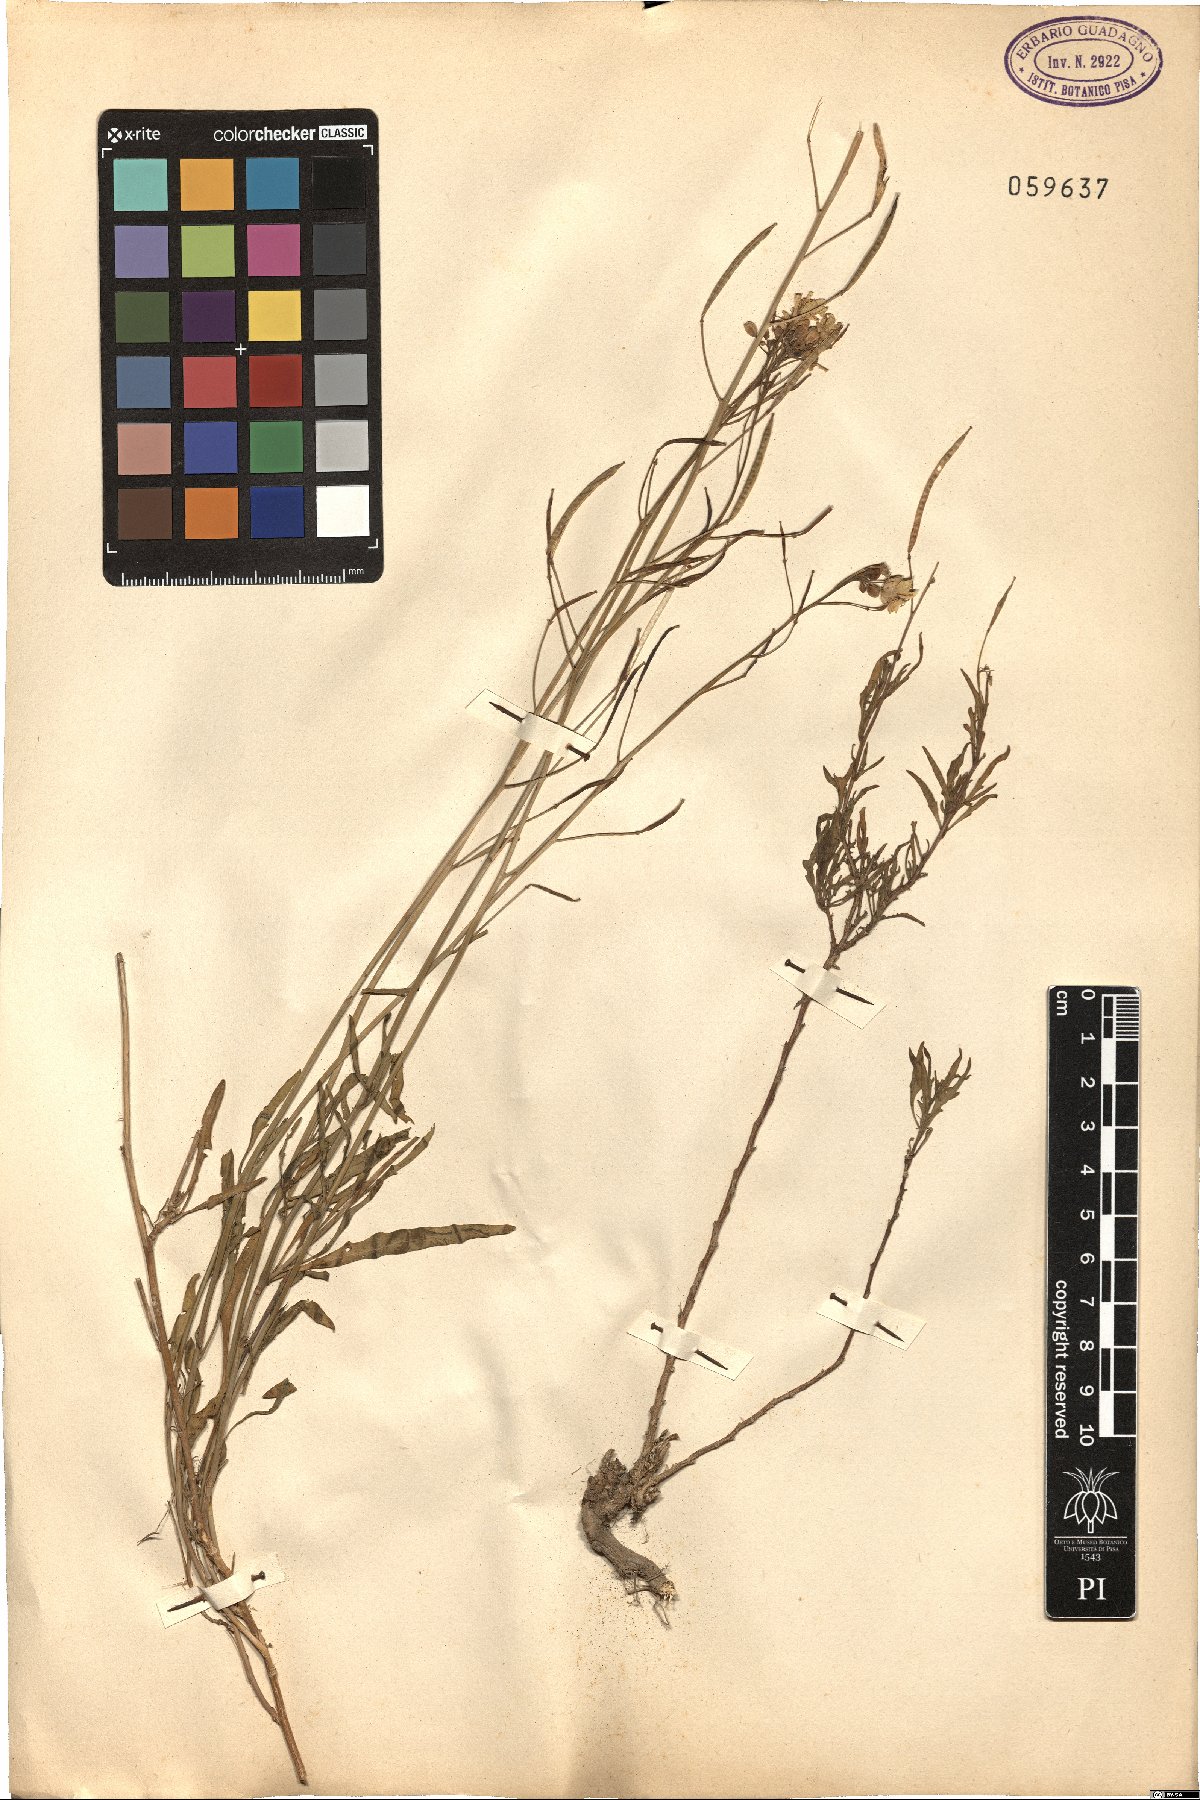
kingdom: Plantae
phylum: Tracheophyta
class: Magnoliopsida
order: Brassicales
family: Brassicaceae
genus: Diplotaxis
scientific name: Diplotaxis tenuifolia
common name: Perennial wall-rocket
